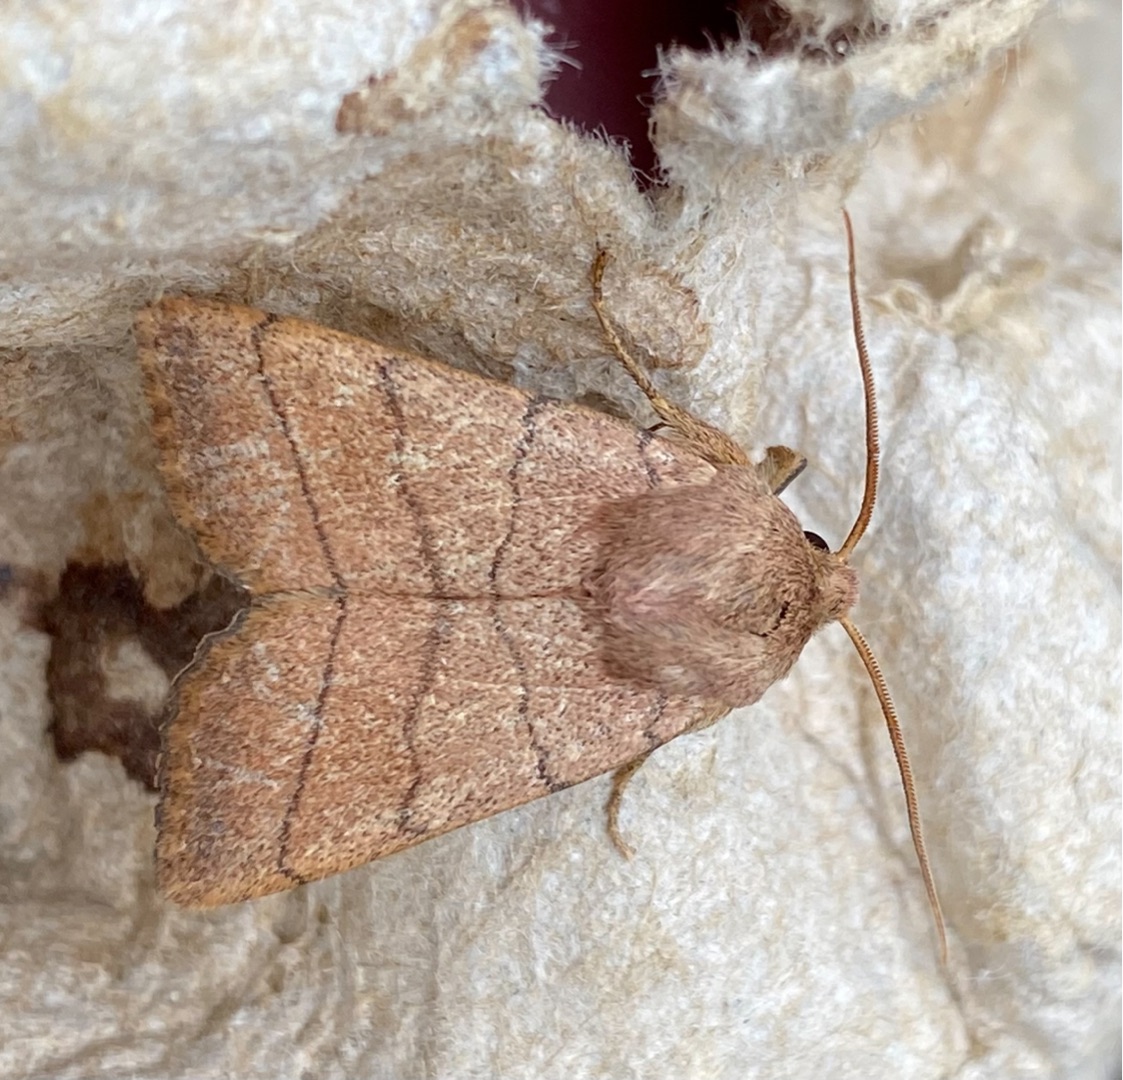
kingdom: Animalia
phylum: Arthropoda
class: Insecta
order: Lepidoptera
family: Noctuidae
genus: Charanyca
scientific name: Charanyca trigrammica
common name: Firestreget ugle
